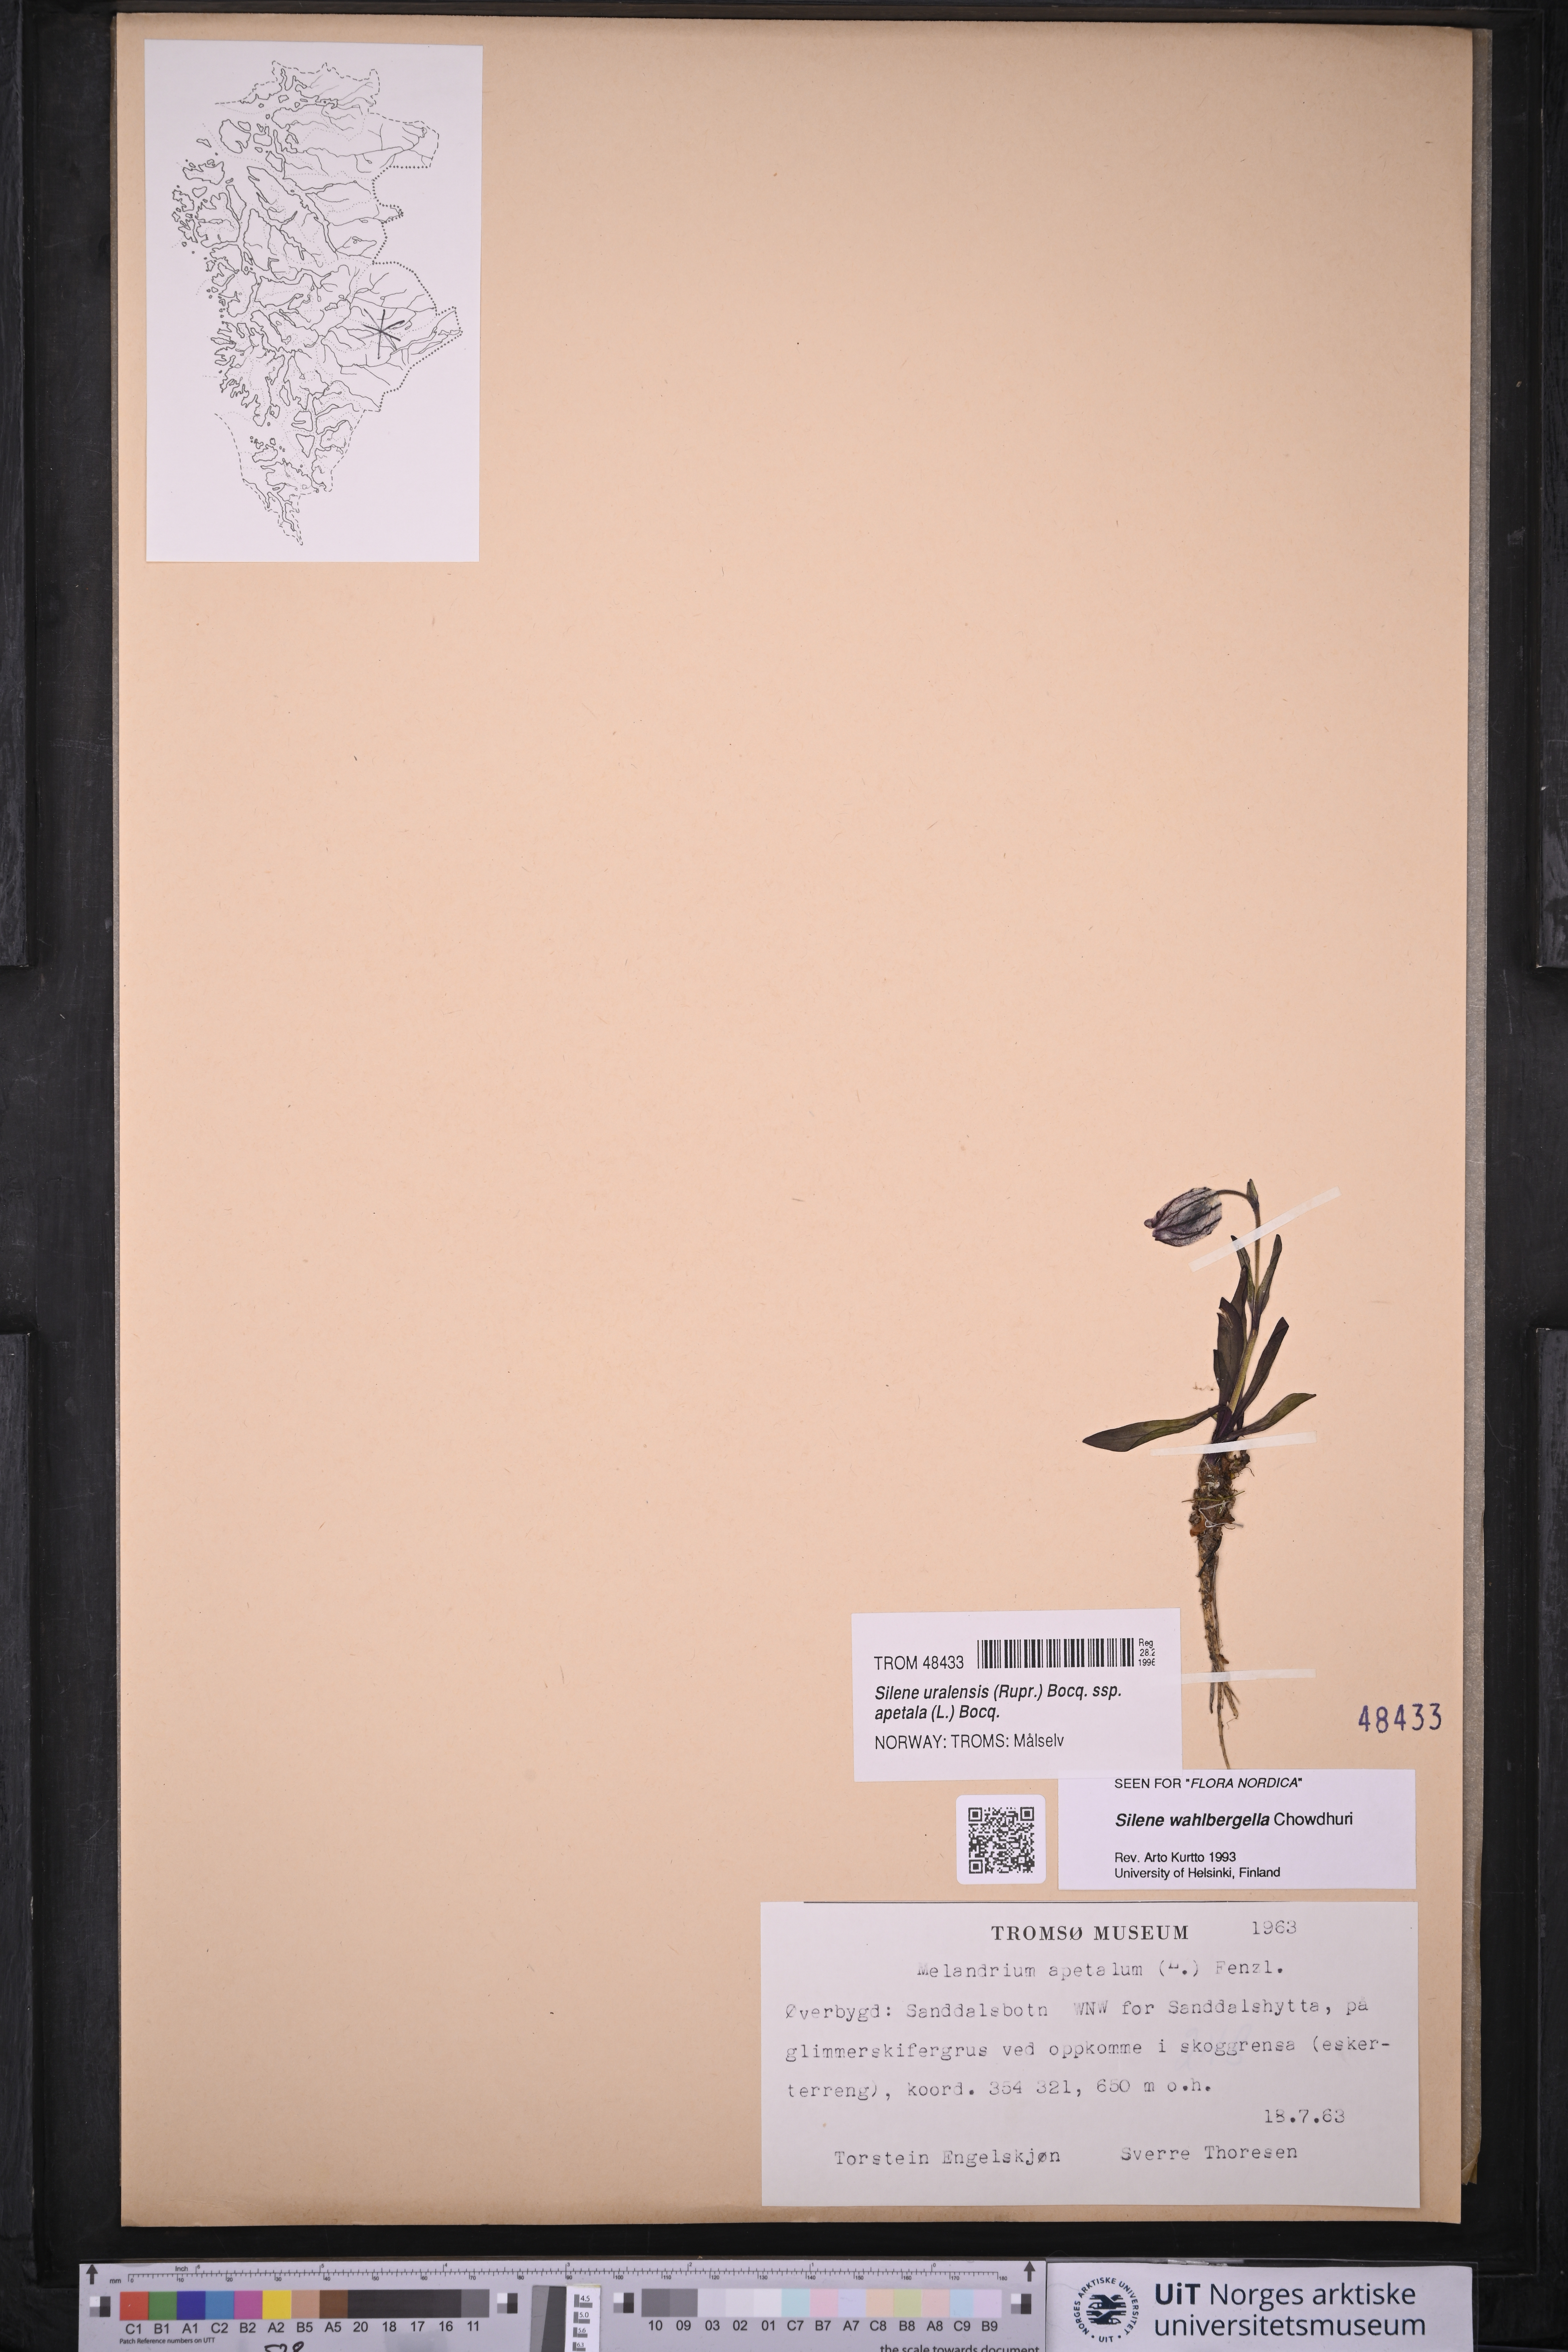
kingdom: Plantae
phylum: Tracheophyta
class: Magnoliopsida
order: Caryophyllales
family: Caryophyllaceae
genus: Silene
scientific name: Silene wahlbergella
